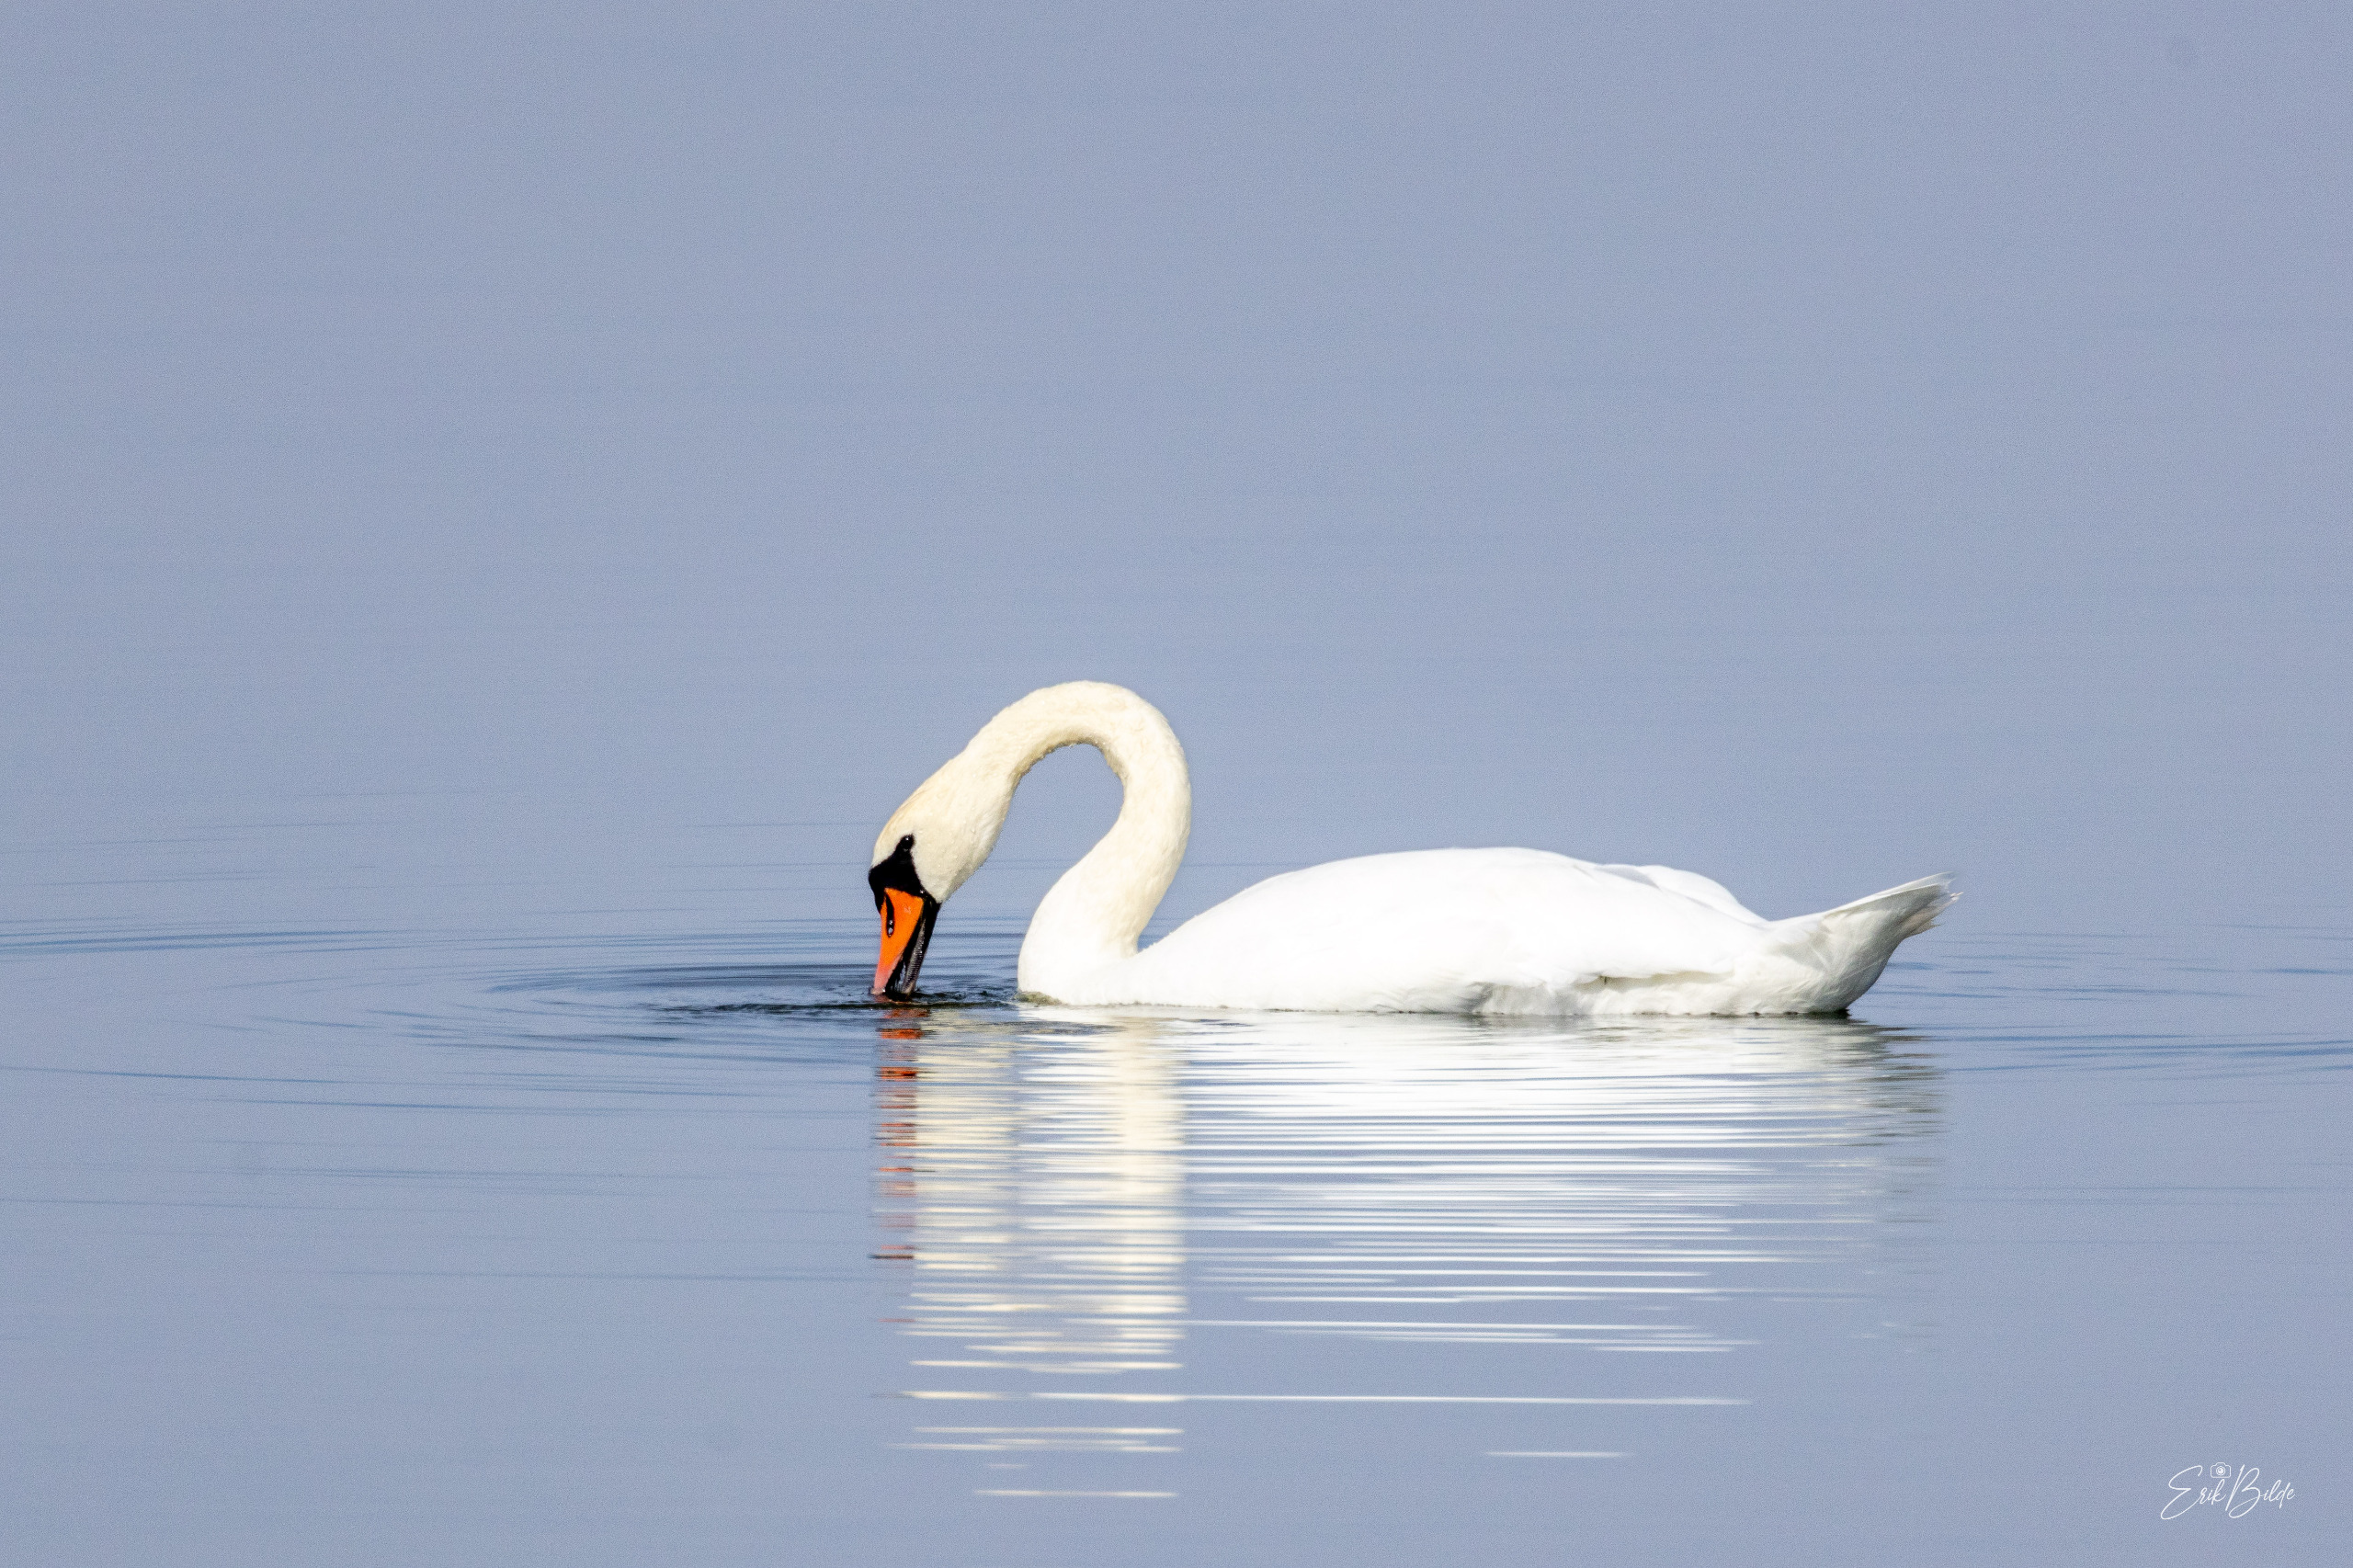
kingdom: Animalia
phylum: Chordata
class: Aves
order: Anseriformes
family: Anatidae
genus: Cygnus
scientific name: Cygnus olor
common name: Knopsvane
